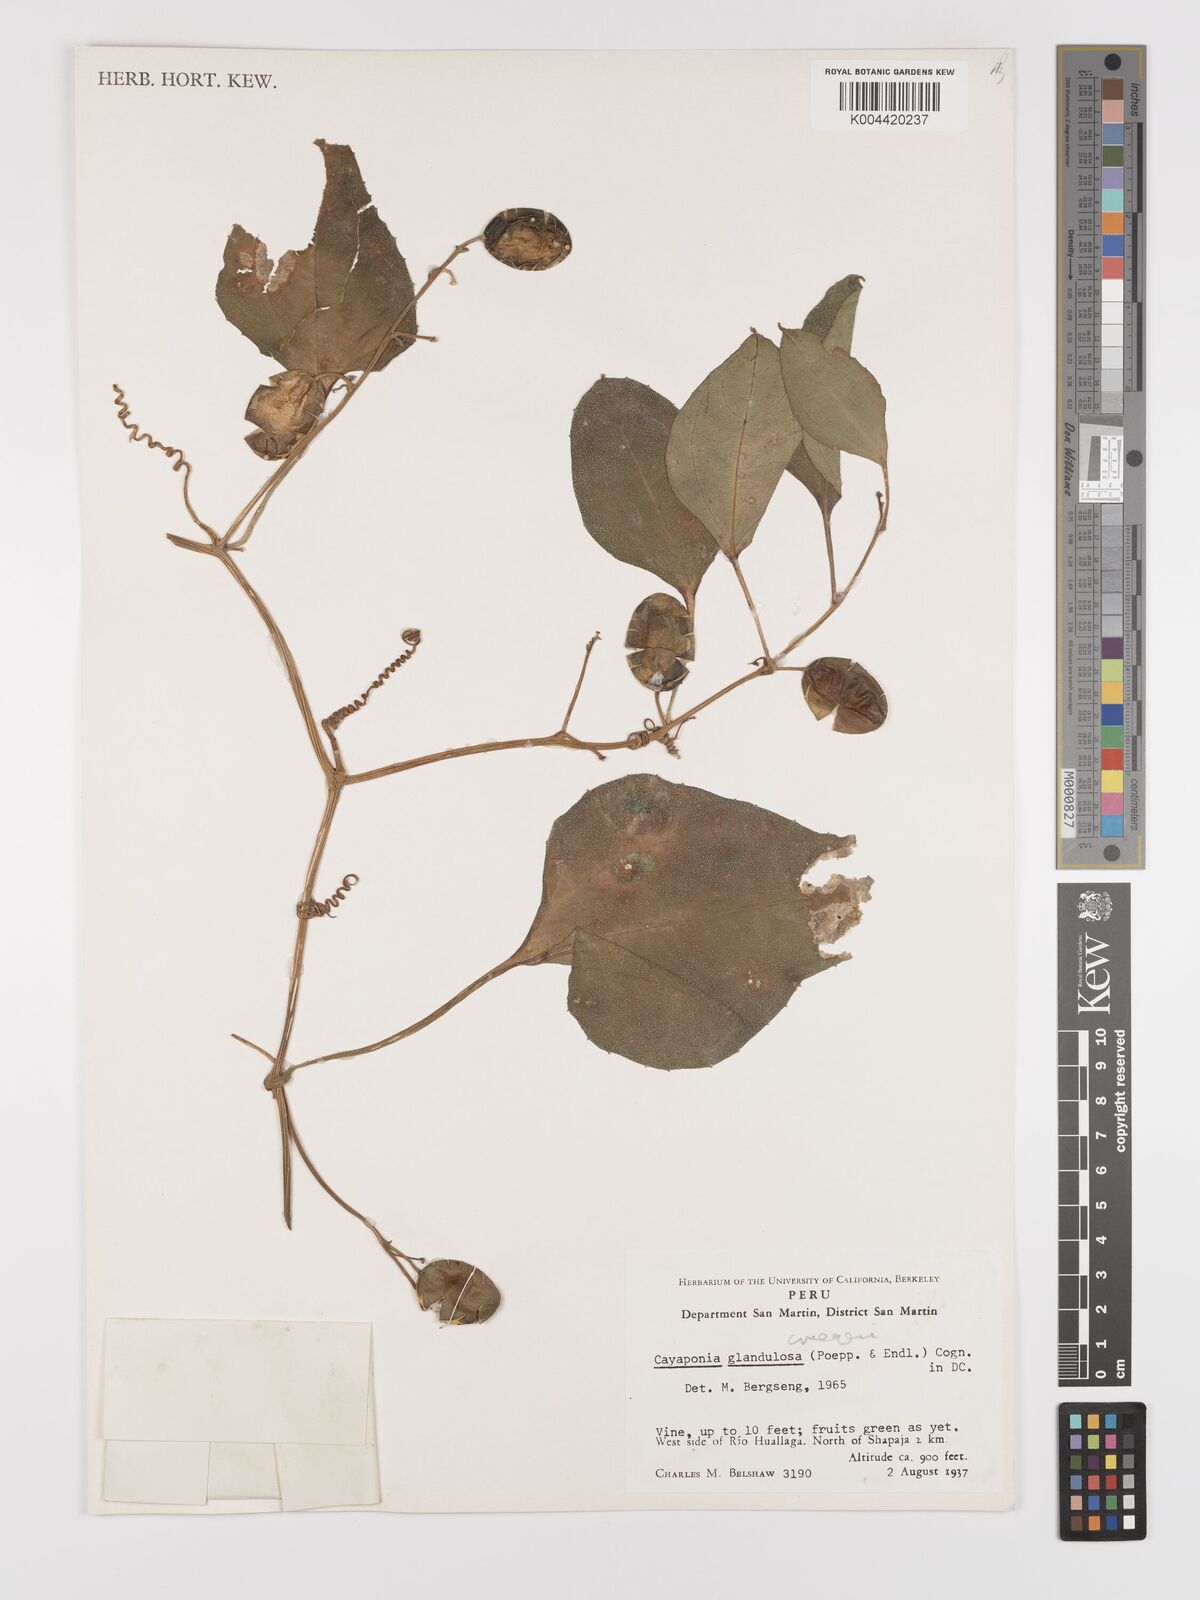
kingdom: Plantae
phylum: Tracheophyta
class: Magnoliopsida
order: Cucurbitales
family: Cucurbitaceae
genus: Cayaponia
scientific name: Cayaponia cruegeri
